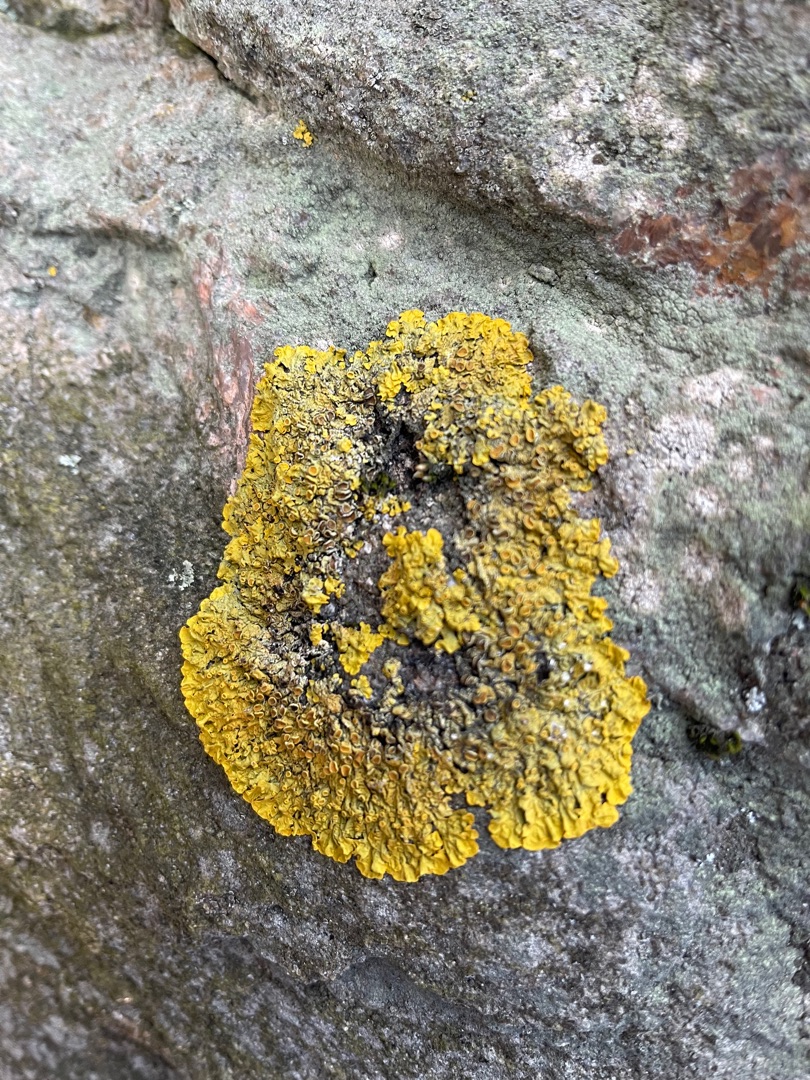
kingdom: Fungi
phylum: Ascomycota
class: Lecanoromycetes
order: Teloschistales
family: Teloschistaceae
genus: Xanthoria
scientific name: Xanthoria parietina
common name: Almindelig væggelav
